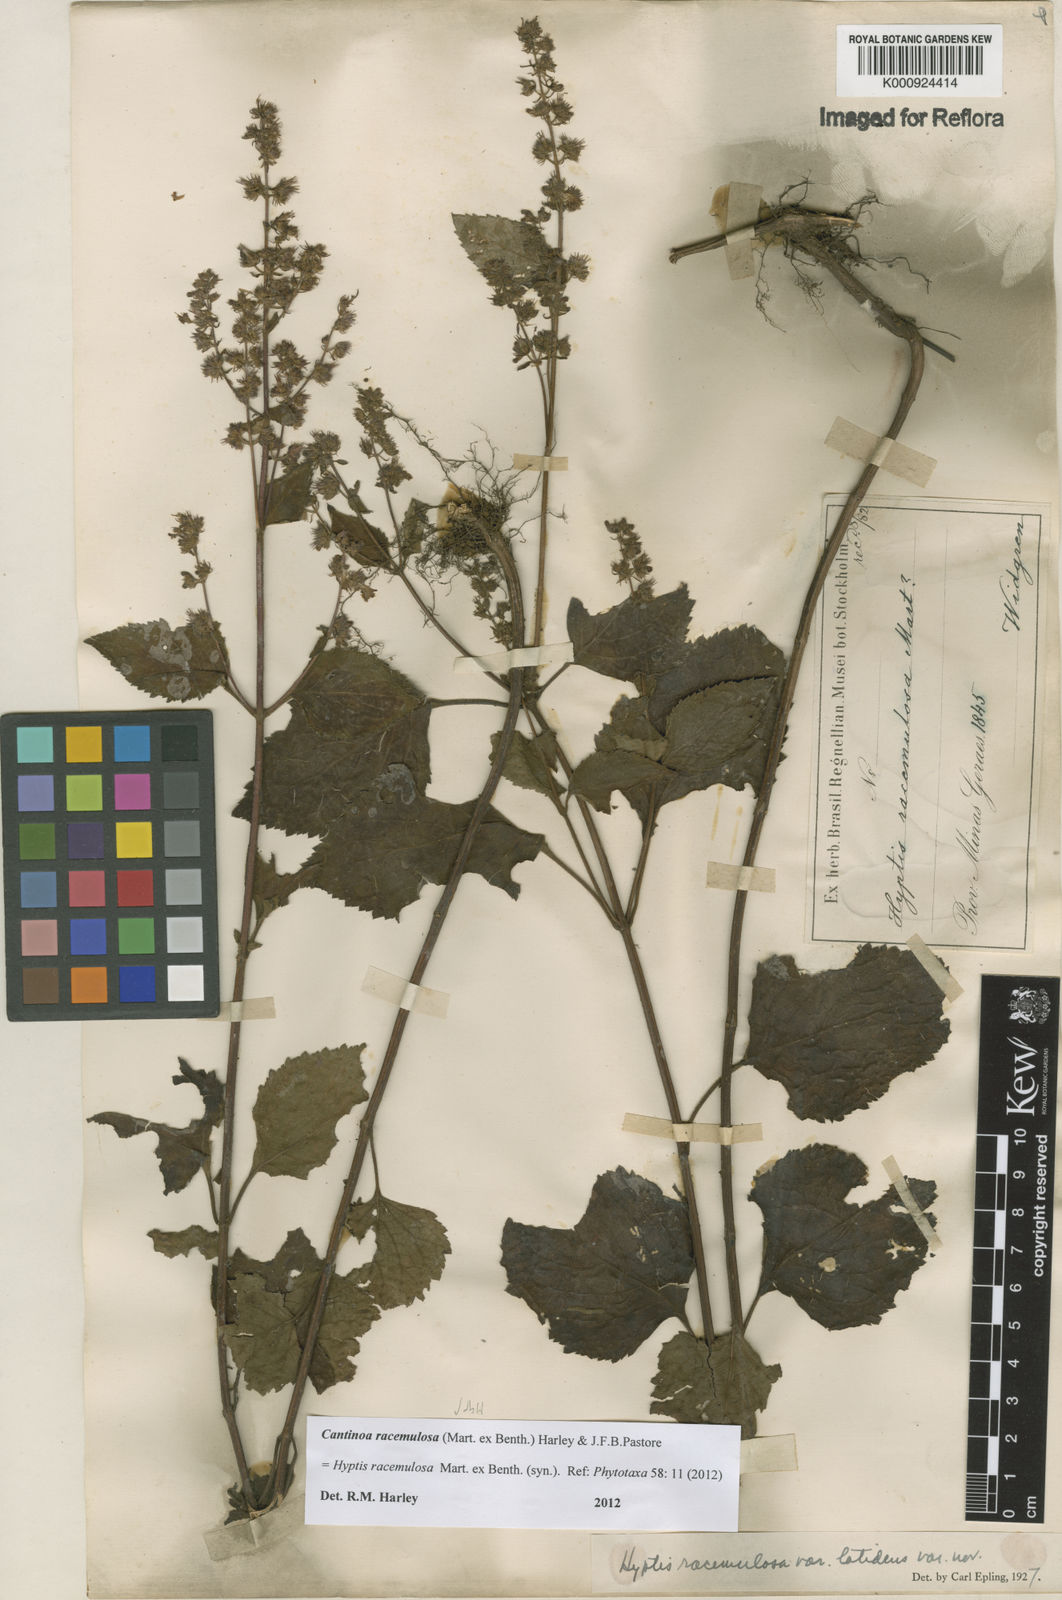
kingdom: Plantae
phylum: Tracheophyta
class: Magnoliopsida
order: Lamiales
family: Lamiaceae
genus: Cantinoa
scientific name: Cantinoa racemulosa
